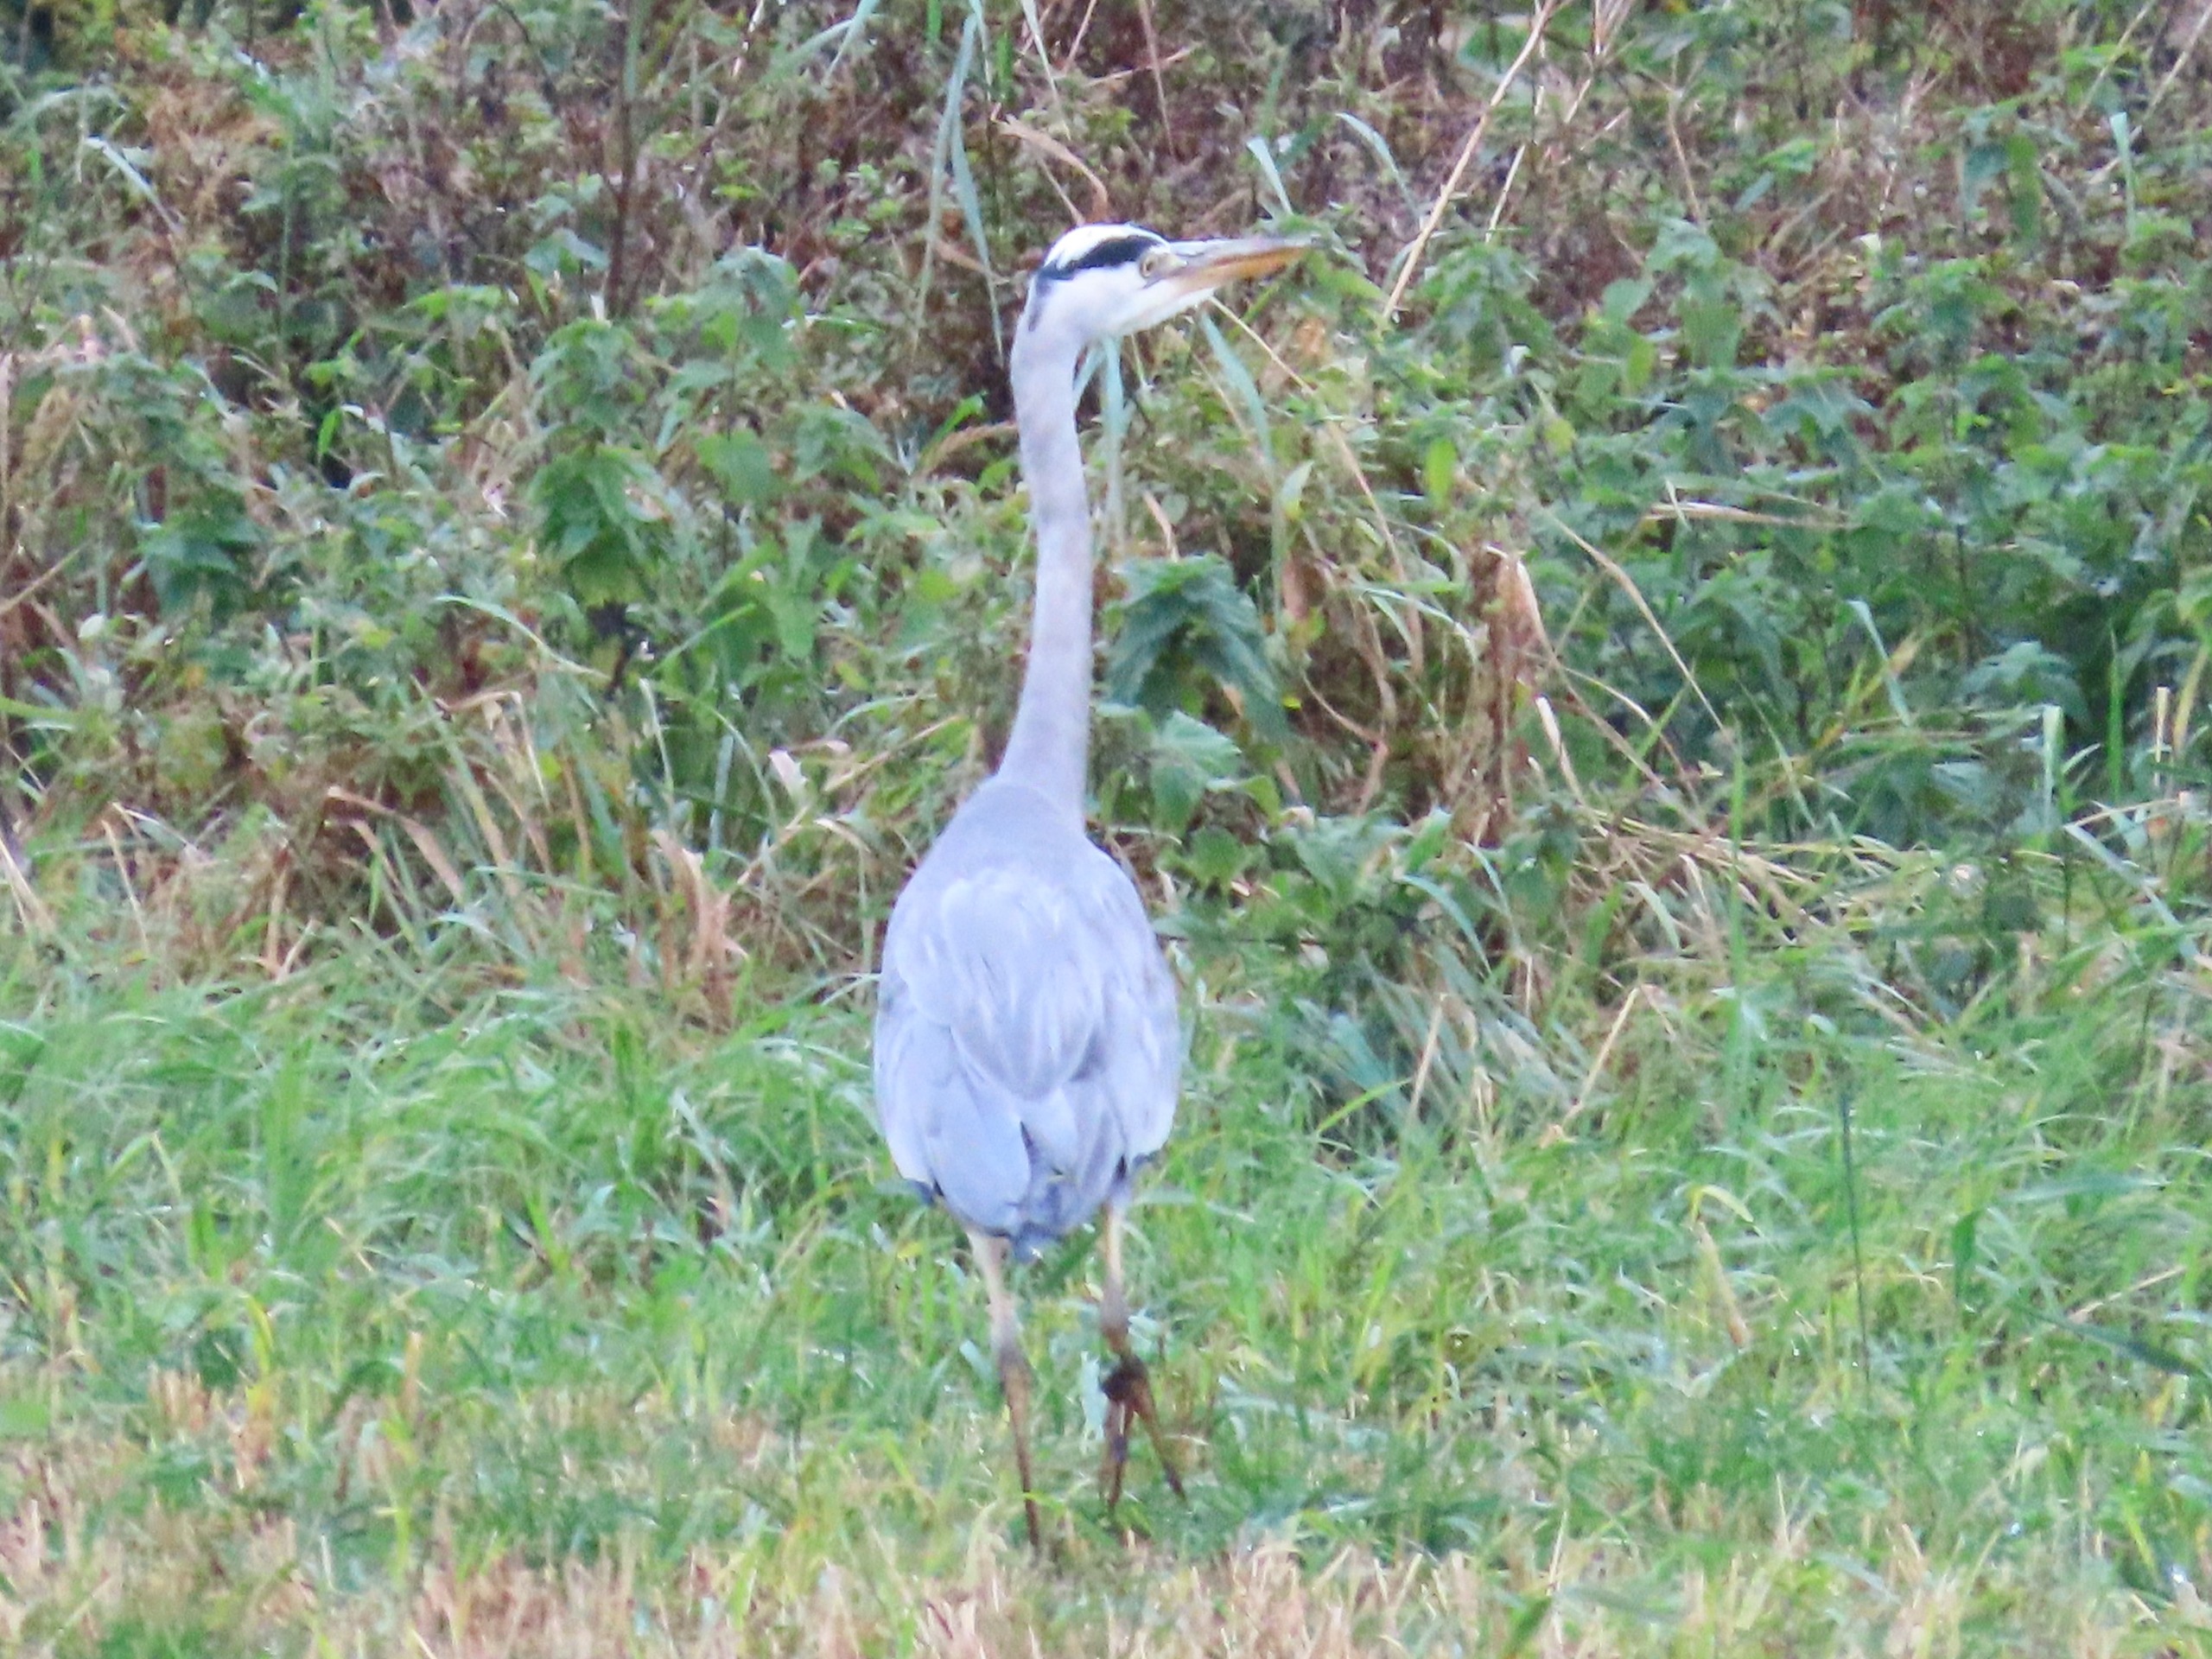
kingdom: Animalia
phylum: Chordata
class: Aves
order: Pelecaniformes
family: Ardeidae
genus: Ardea
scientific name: Ardea cinerea
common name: Fiskehejre
